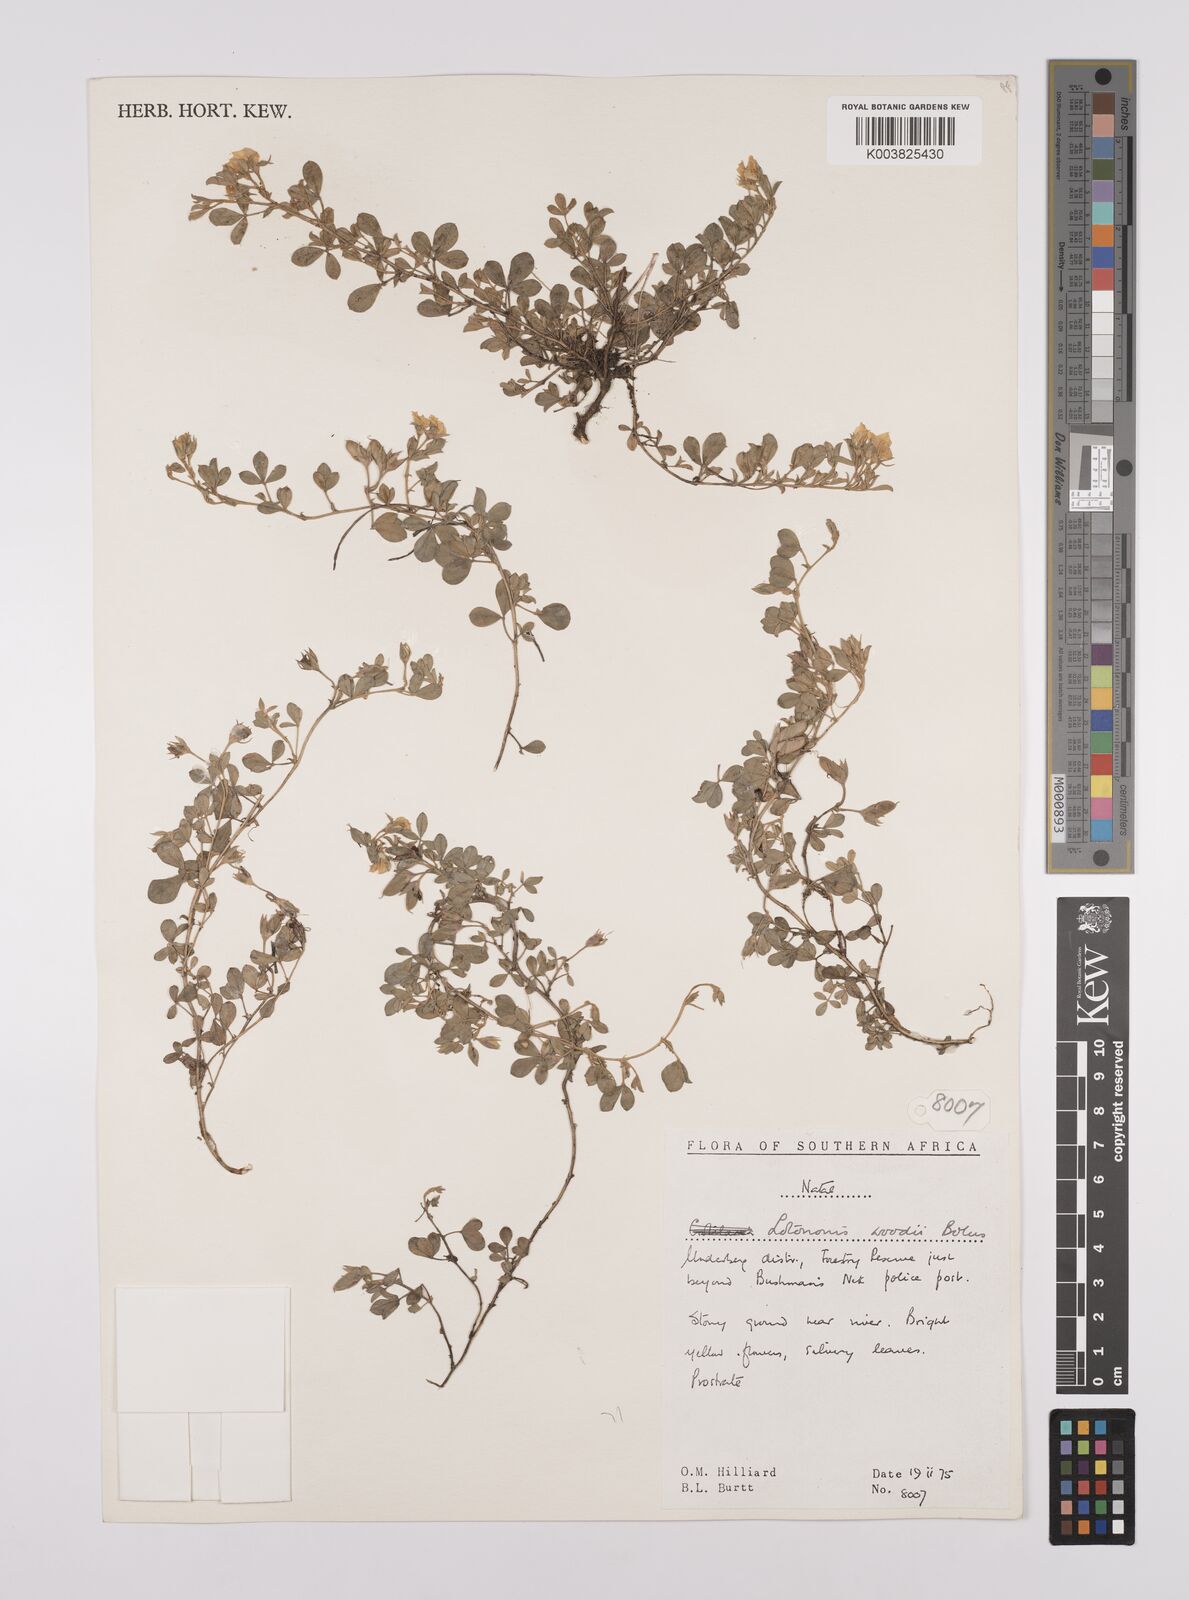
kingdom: Plantae
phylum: Tracheophyta
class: Magnoliopsida
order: Fabales
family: Fabaceae
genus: Lotononis
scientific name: Lotononis laxa
